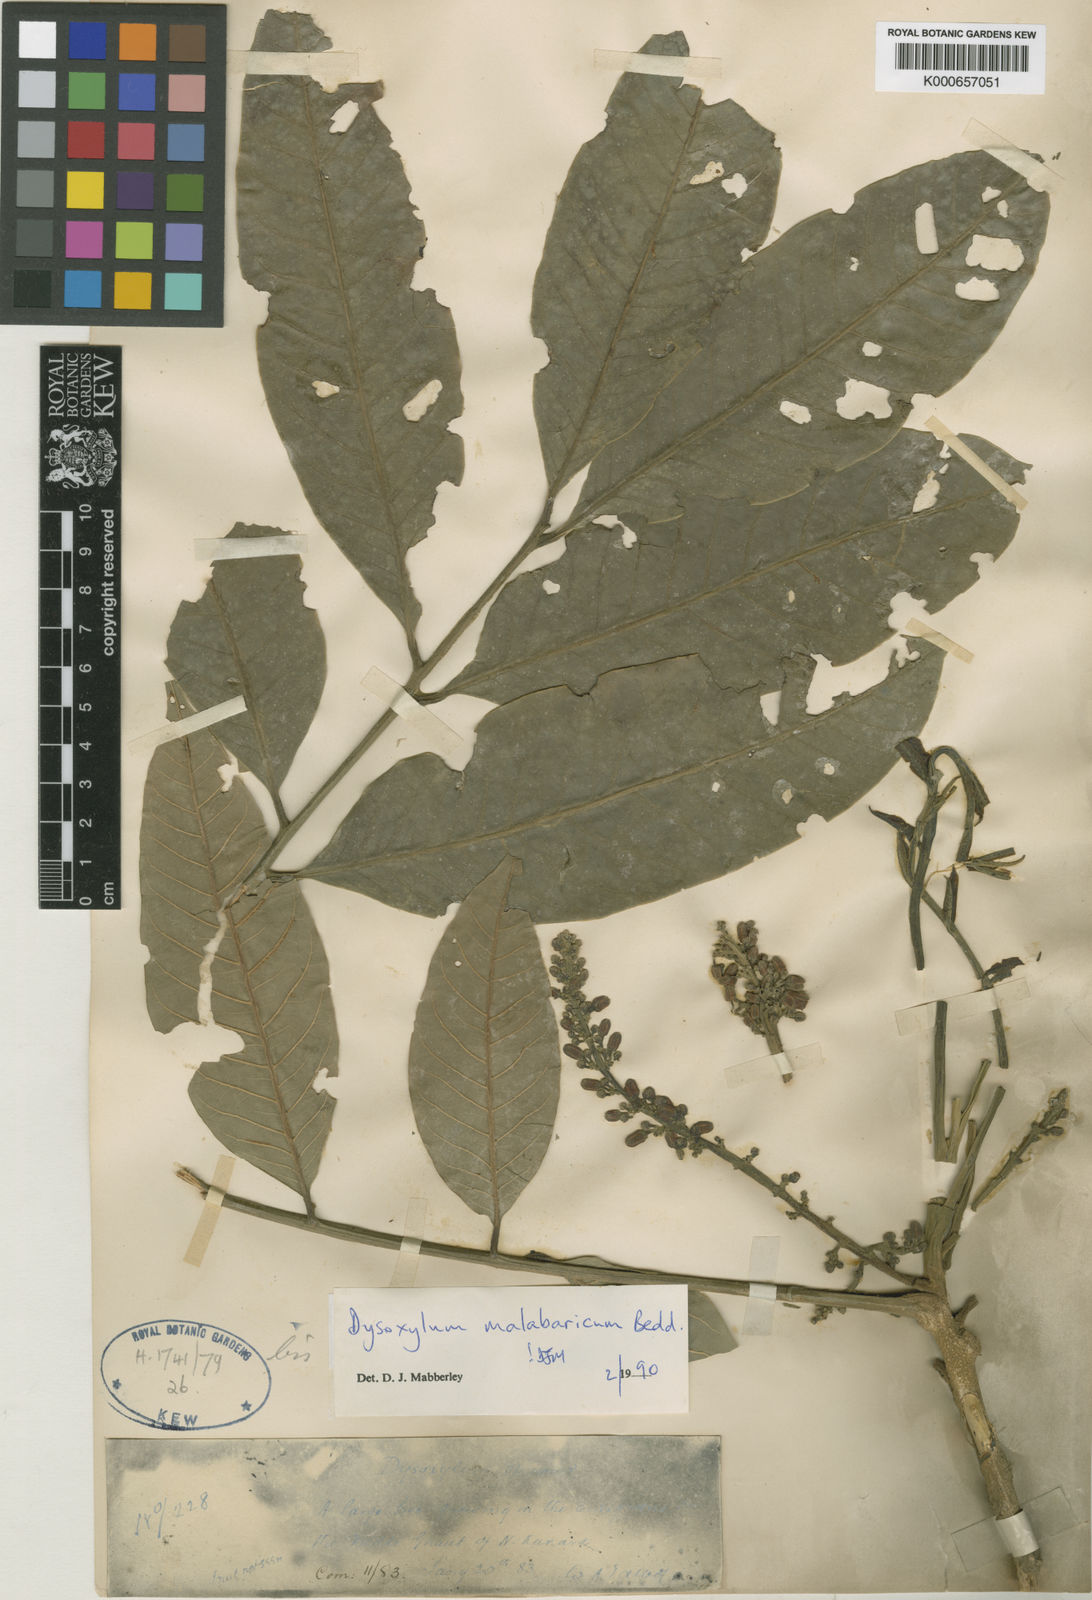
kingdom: Plantae
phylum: Tracheophyta
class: Magnoliopsida
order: Sapindales
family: Meliaceae
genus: Dysoxylum
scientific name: Dysoxylum malabaricum
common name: White cedar
